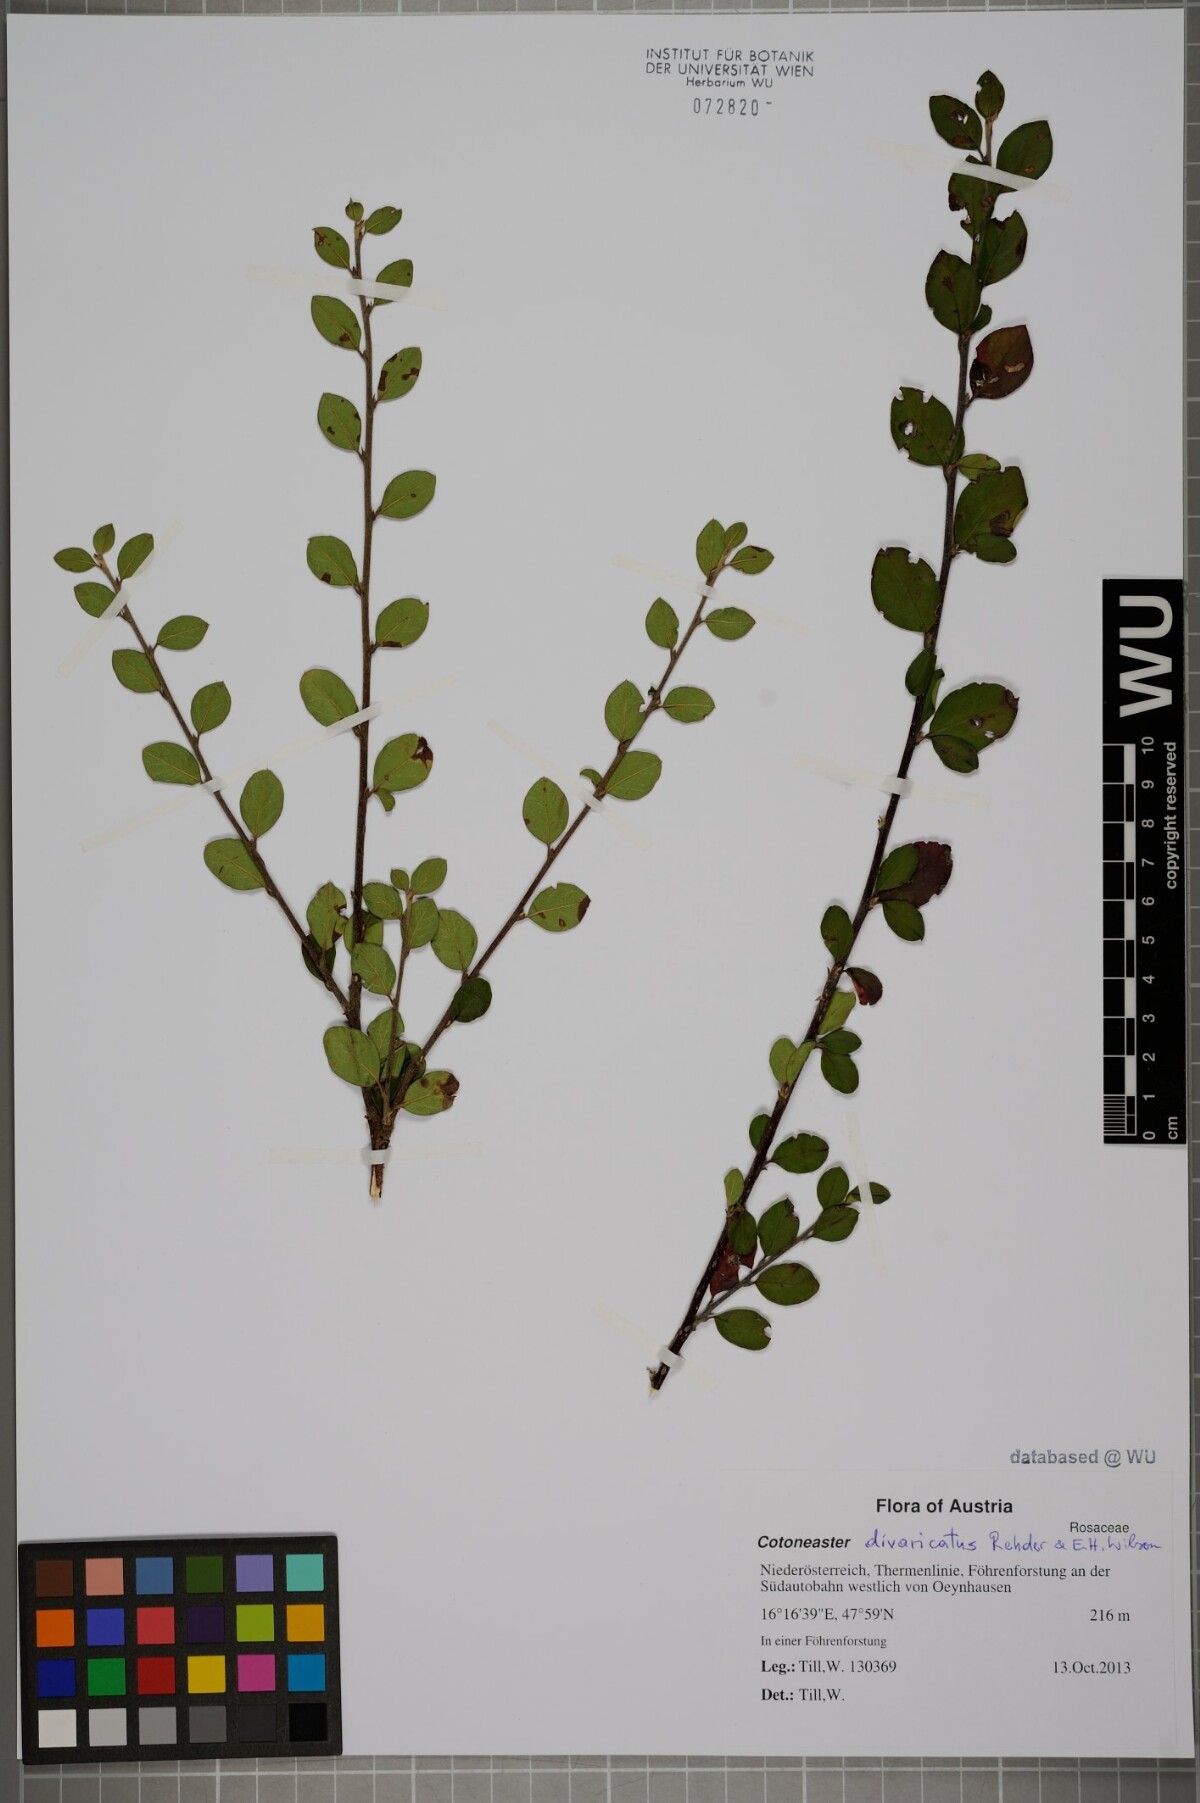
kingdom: Plantae
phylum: Tracheophyta
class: Magnoliopsida
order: Rosales
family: Rosaceae
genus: Cotoneaster
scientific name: Cotoneaster divaricatus
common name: Spreading cotoneaster
